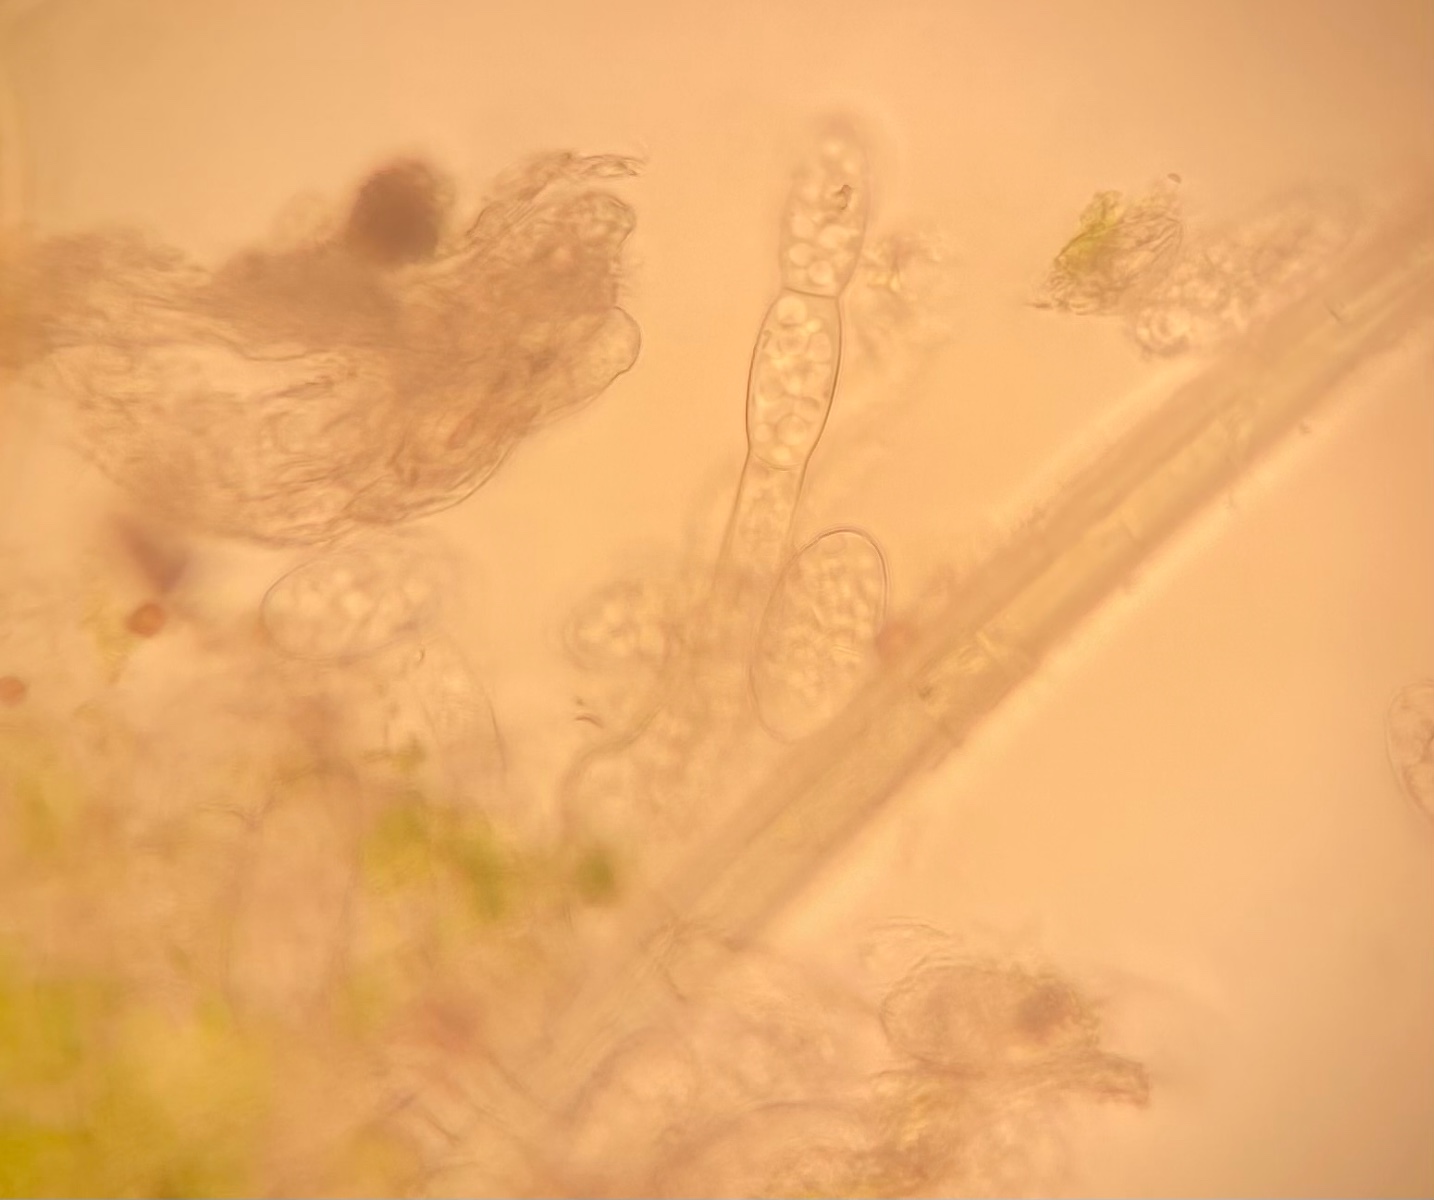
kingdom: Fungi
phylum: Ascomycota
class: Leotiomycetes
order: Helotiales
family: Erysiphaceae
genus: Podosphaera
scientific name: Podosphaera aphanis
